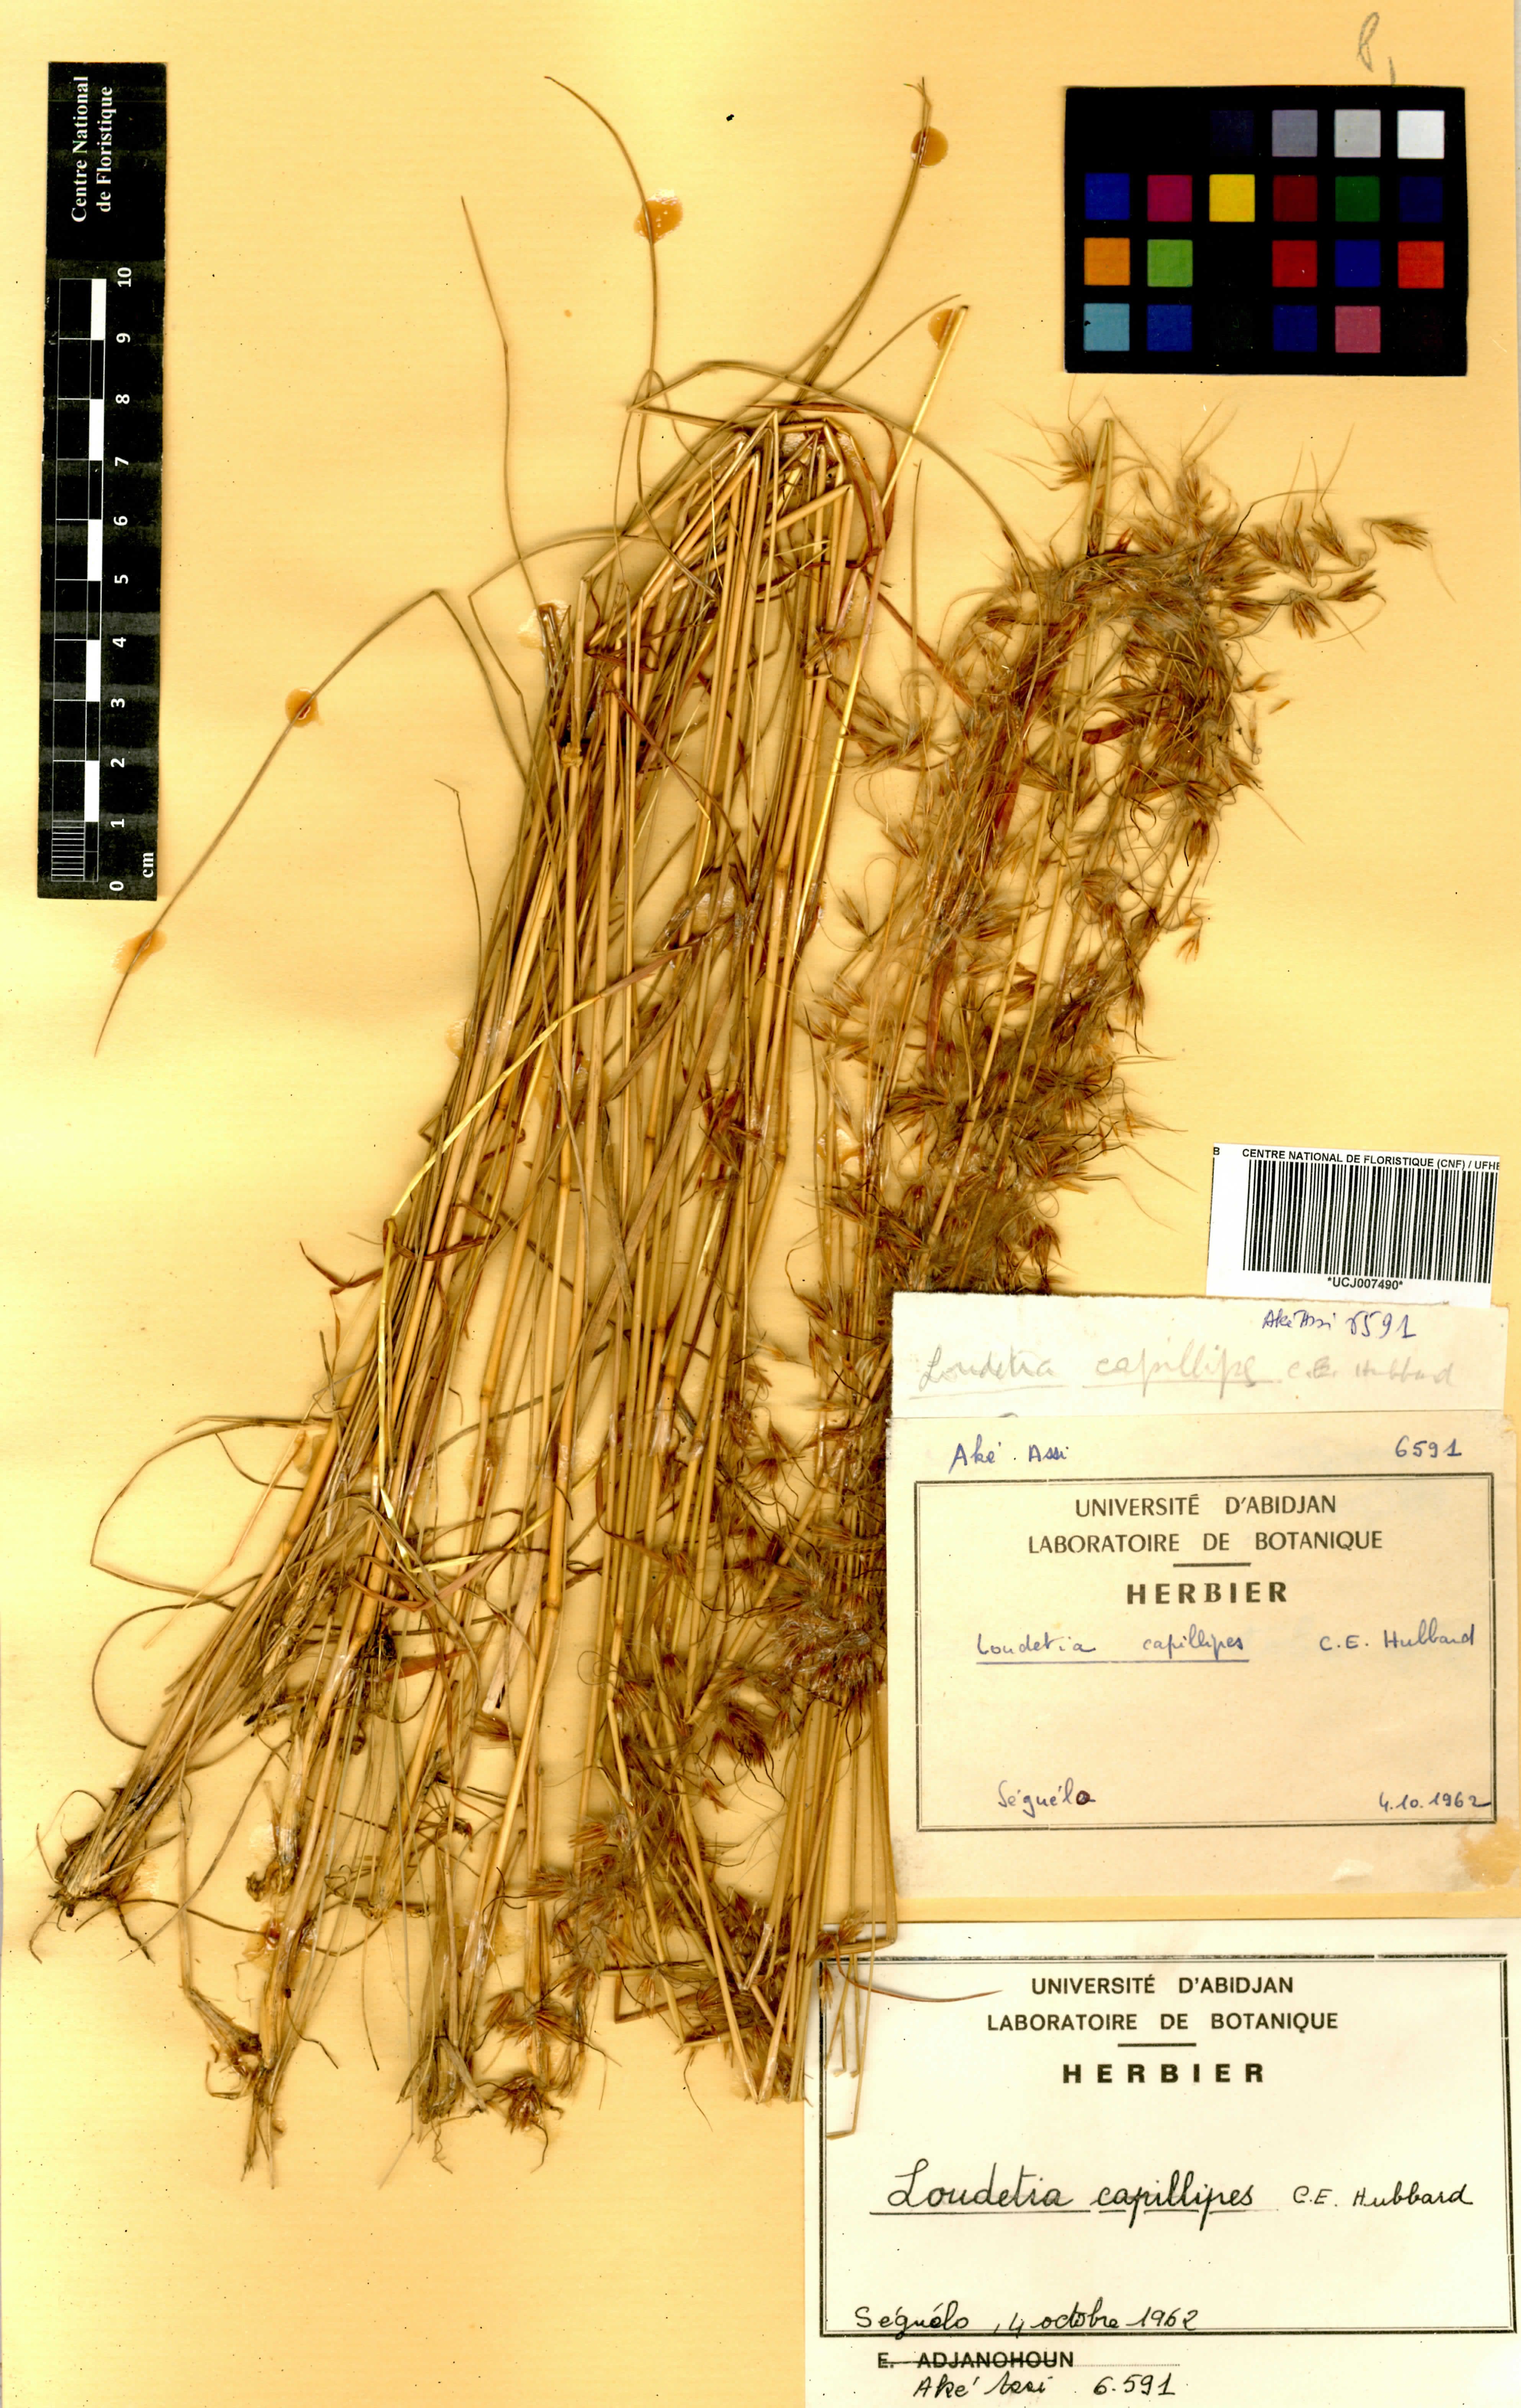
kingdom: Plantae
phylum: Tracheophyta
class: Liliopsida
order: Poales
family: Poaceae
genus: Loudetiopsis
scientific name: Loudetiopsis capillipes
